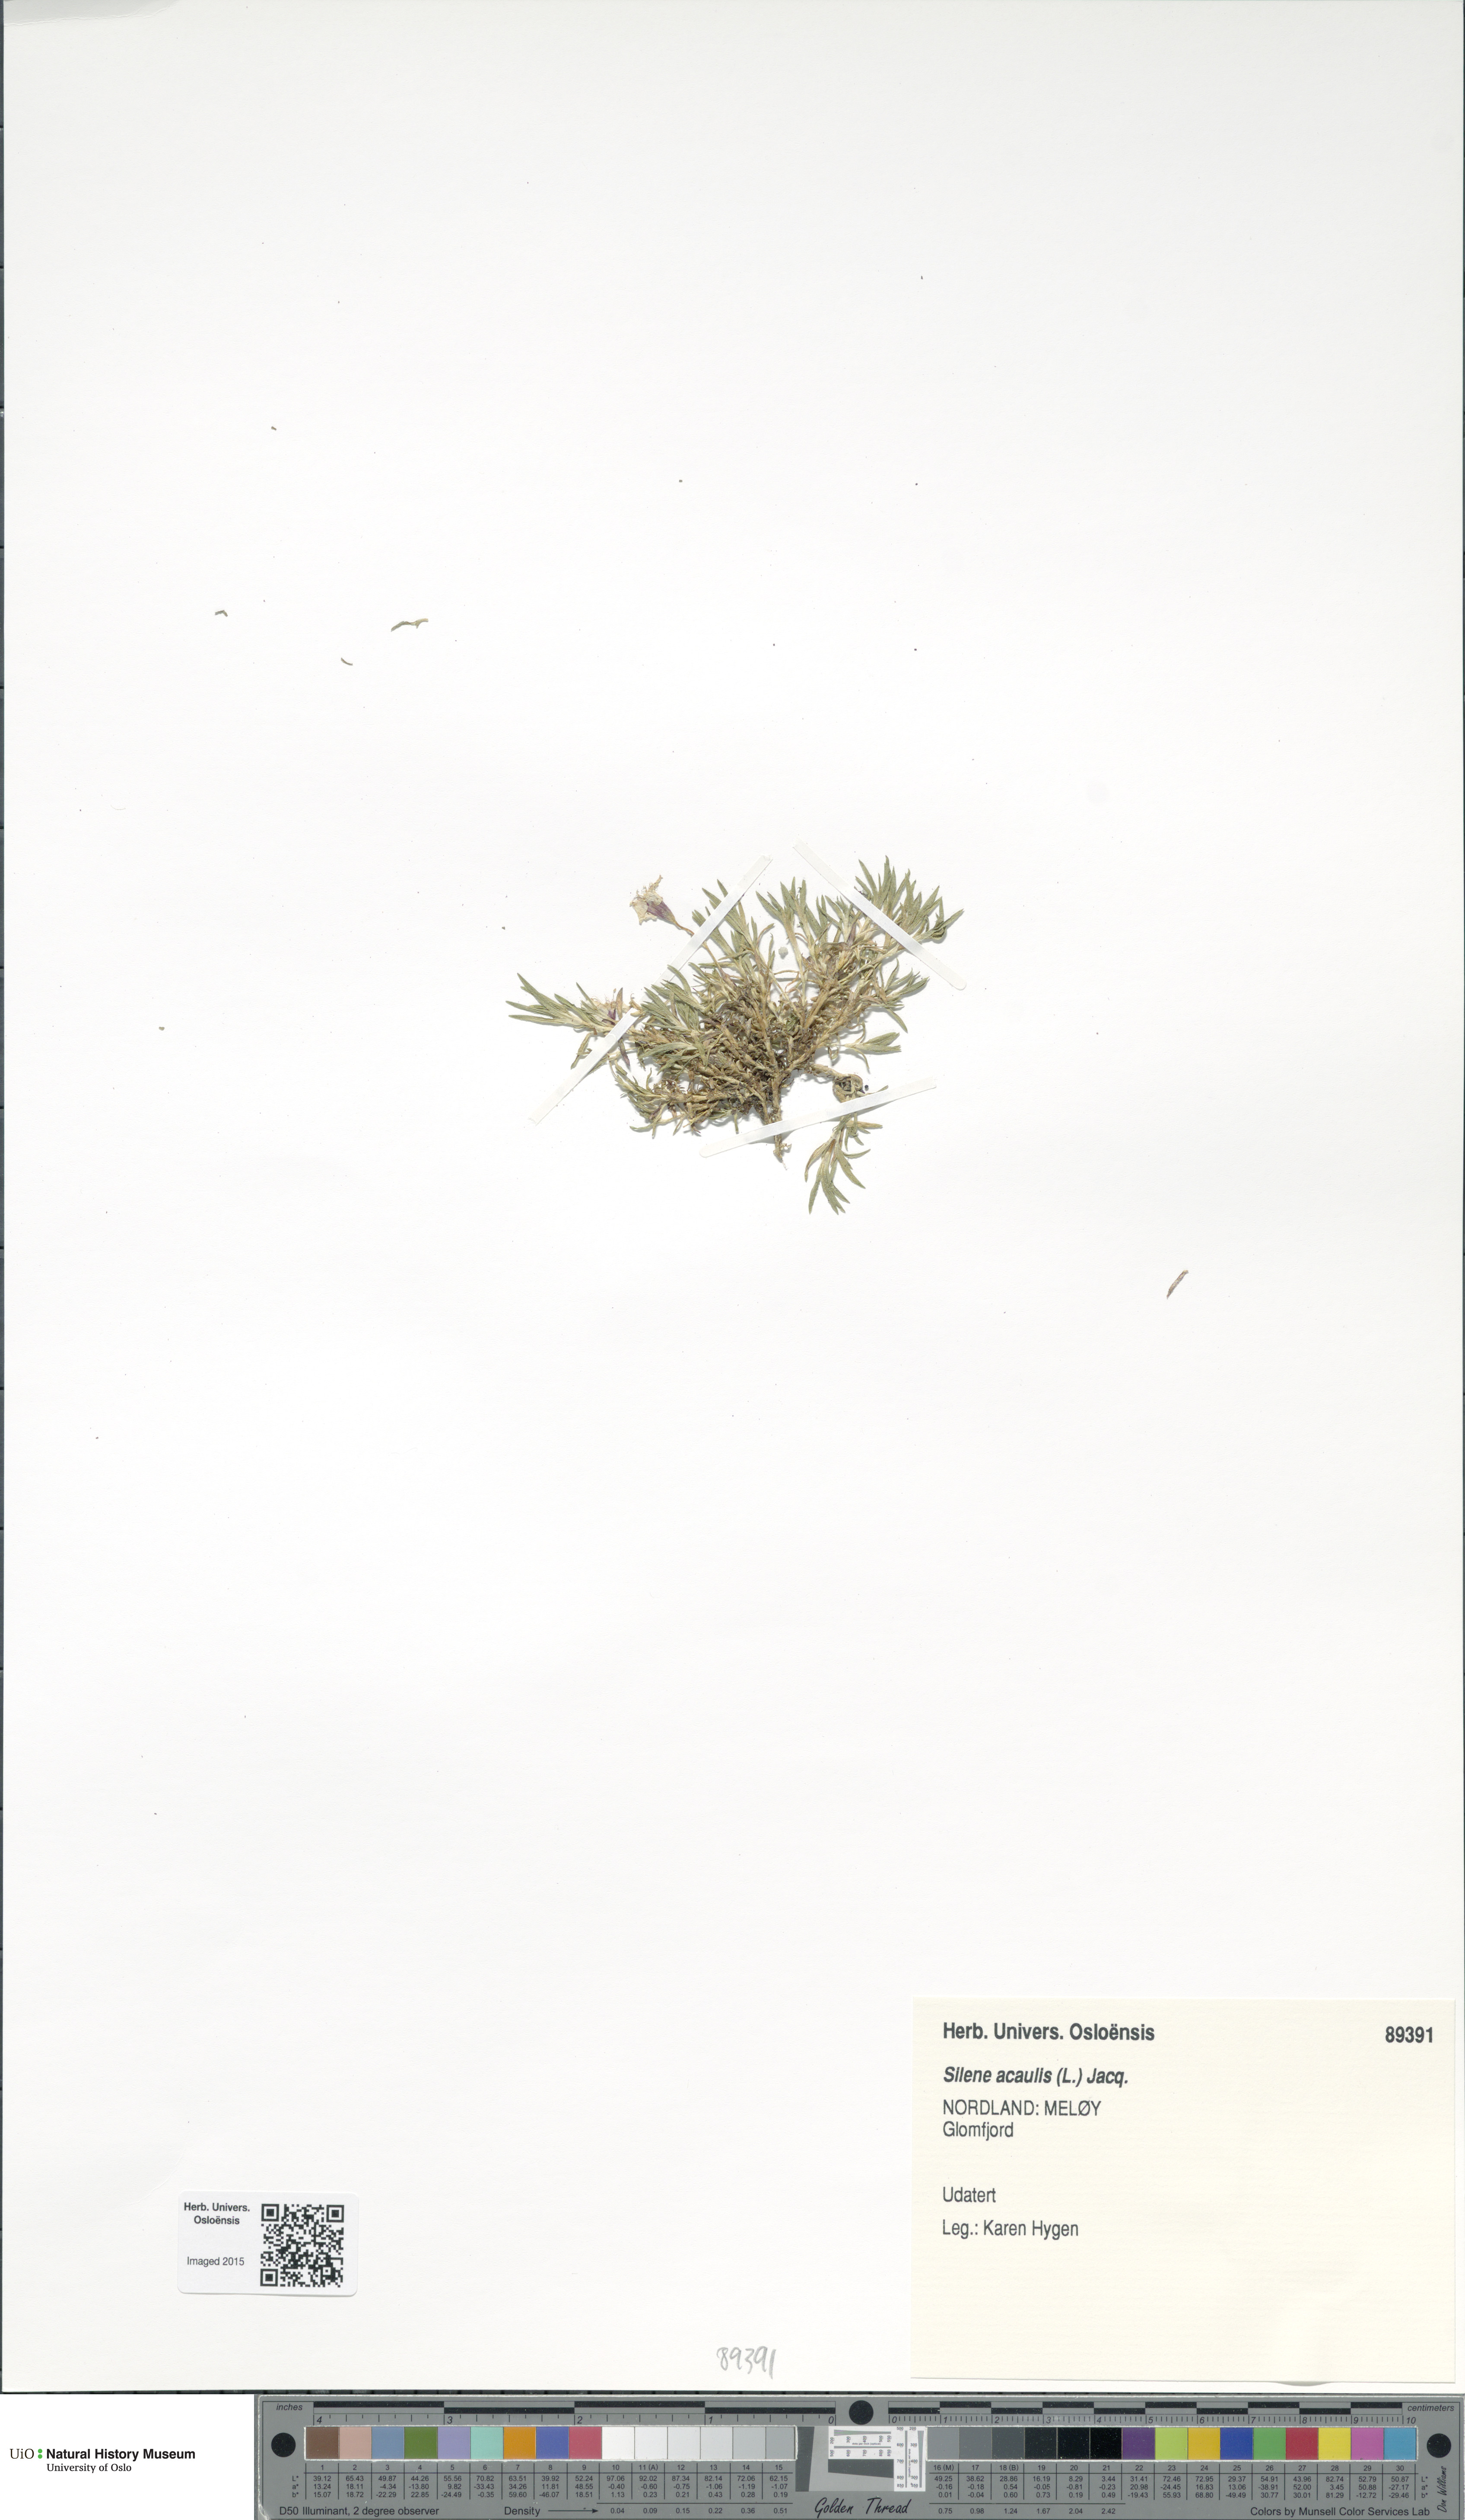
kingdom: Plantae
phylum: Tracheophyta
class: Magnoliopsida
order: Caryophyllales
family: Caryophyllaceae
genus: Silene
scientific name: Silene acaulis
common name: Moss campion
